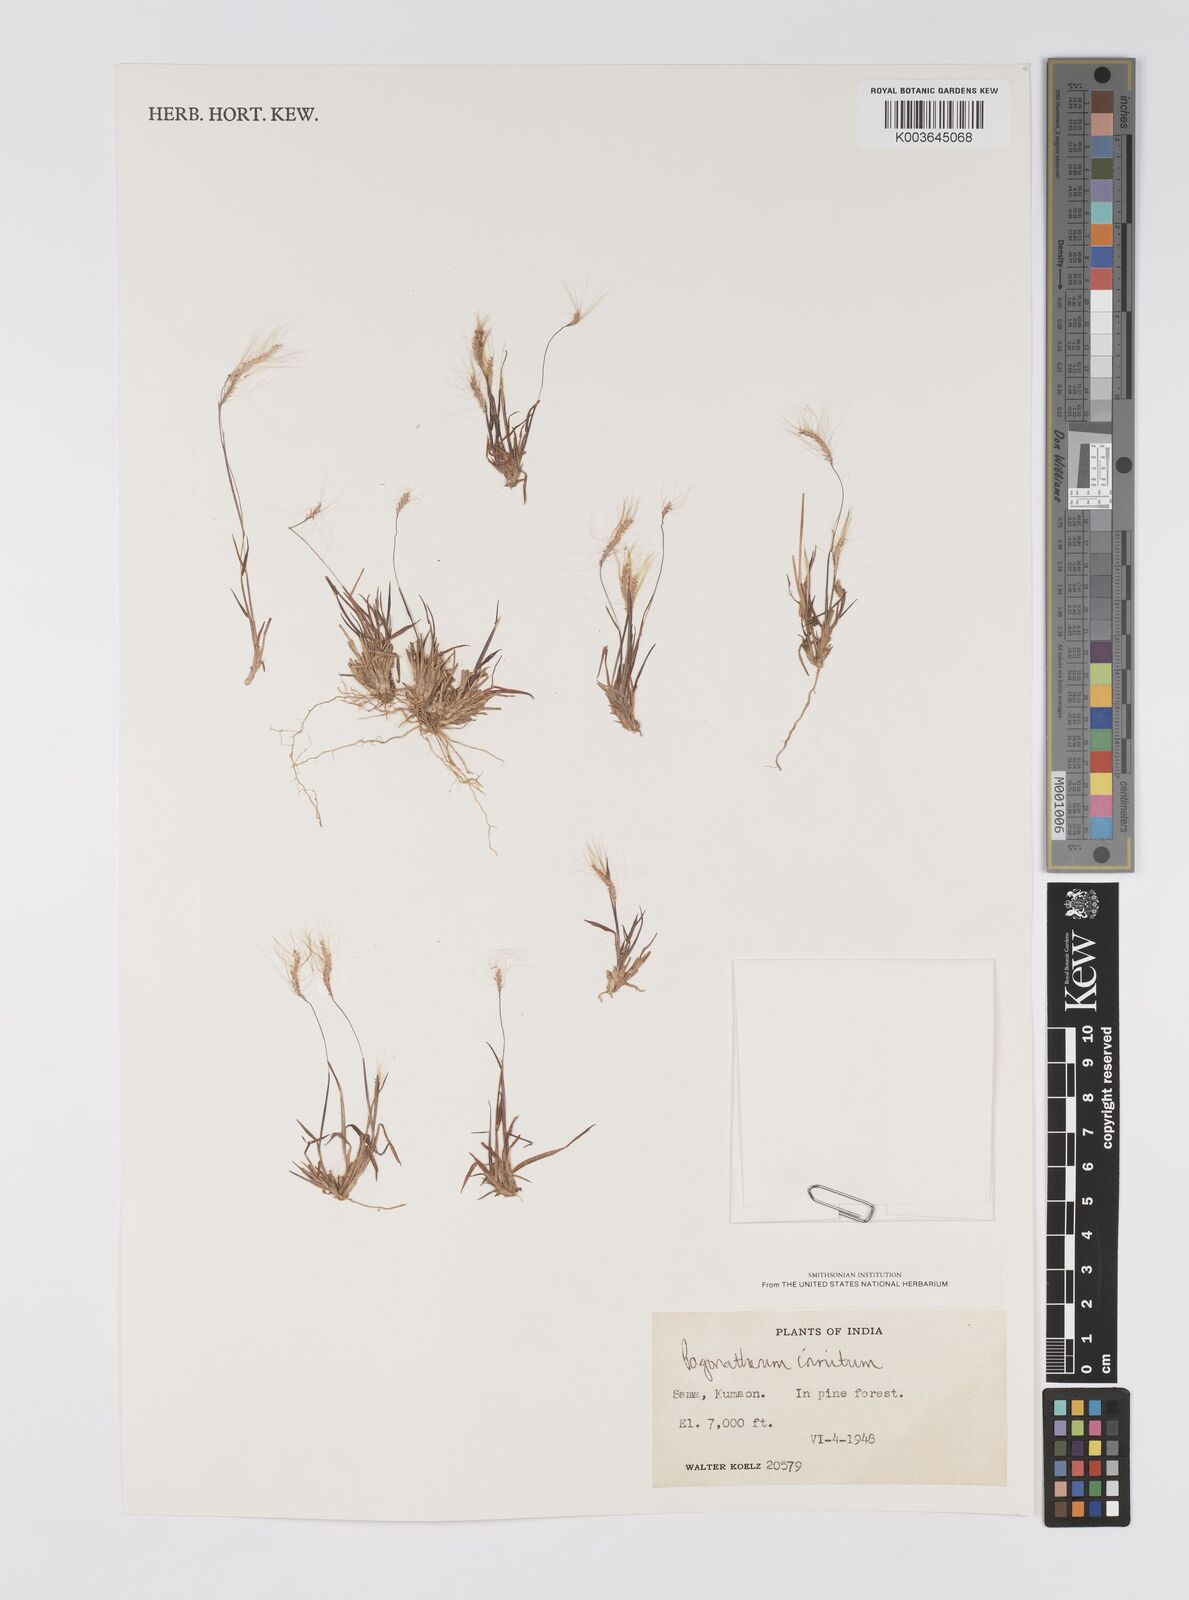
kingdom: Plantae
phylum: Tracheophyta
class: Liliopsida
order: Poales
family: Poaceae
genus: Pogonatherum
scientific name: Pogonatherum crinitum
